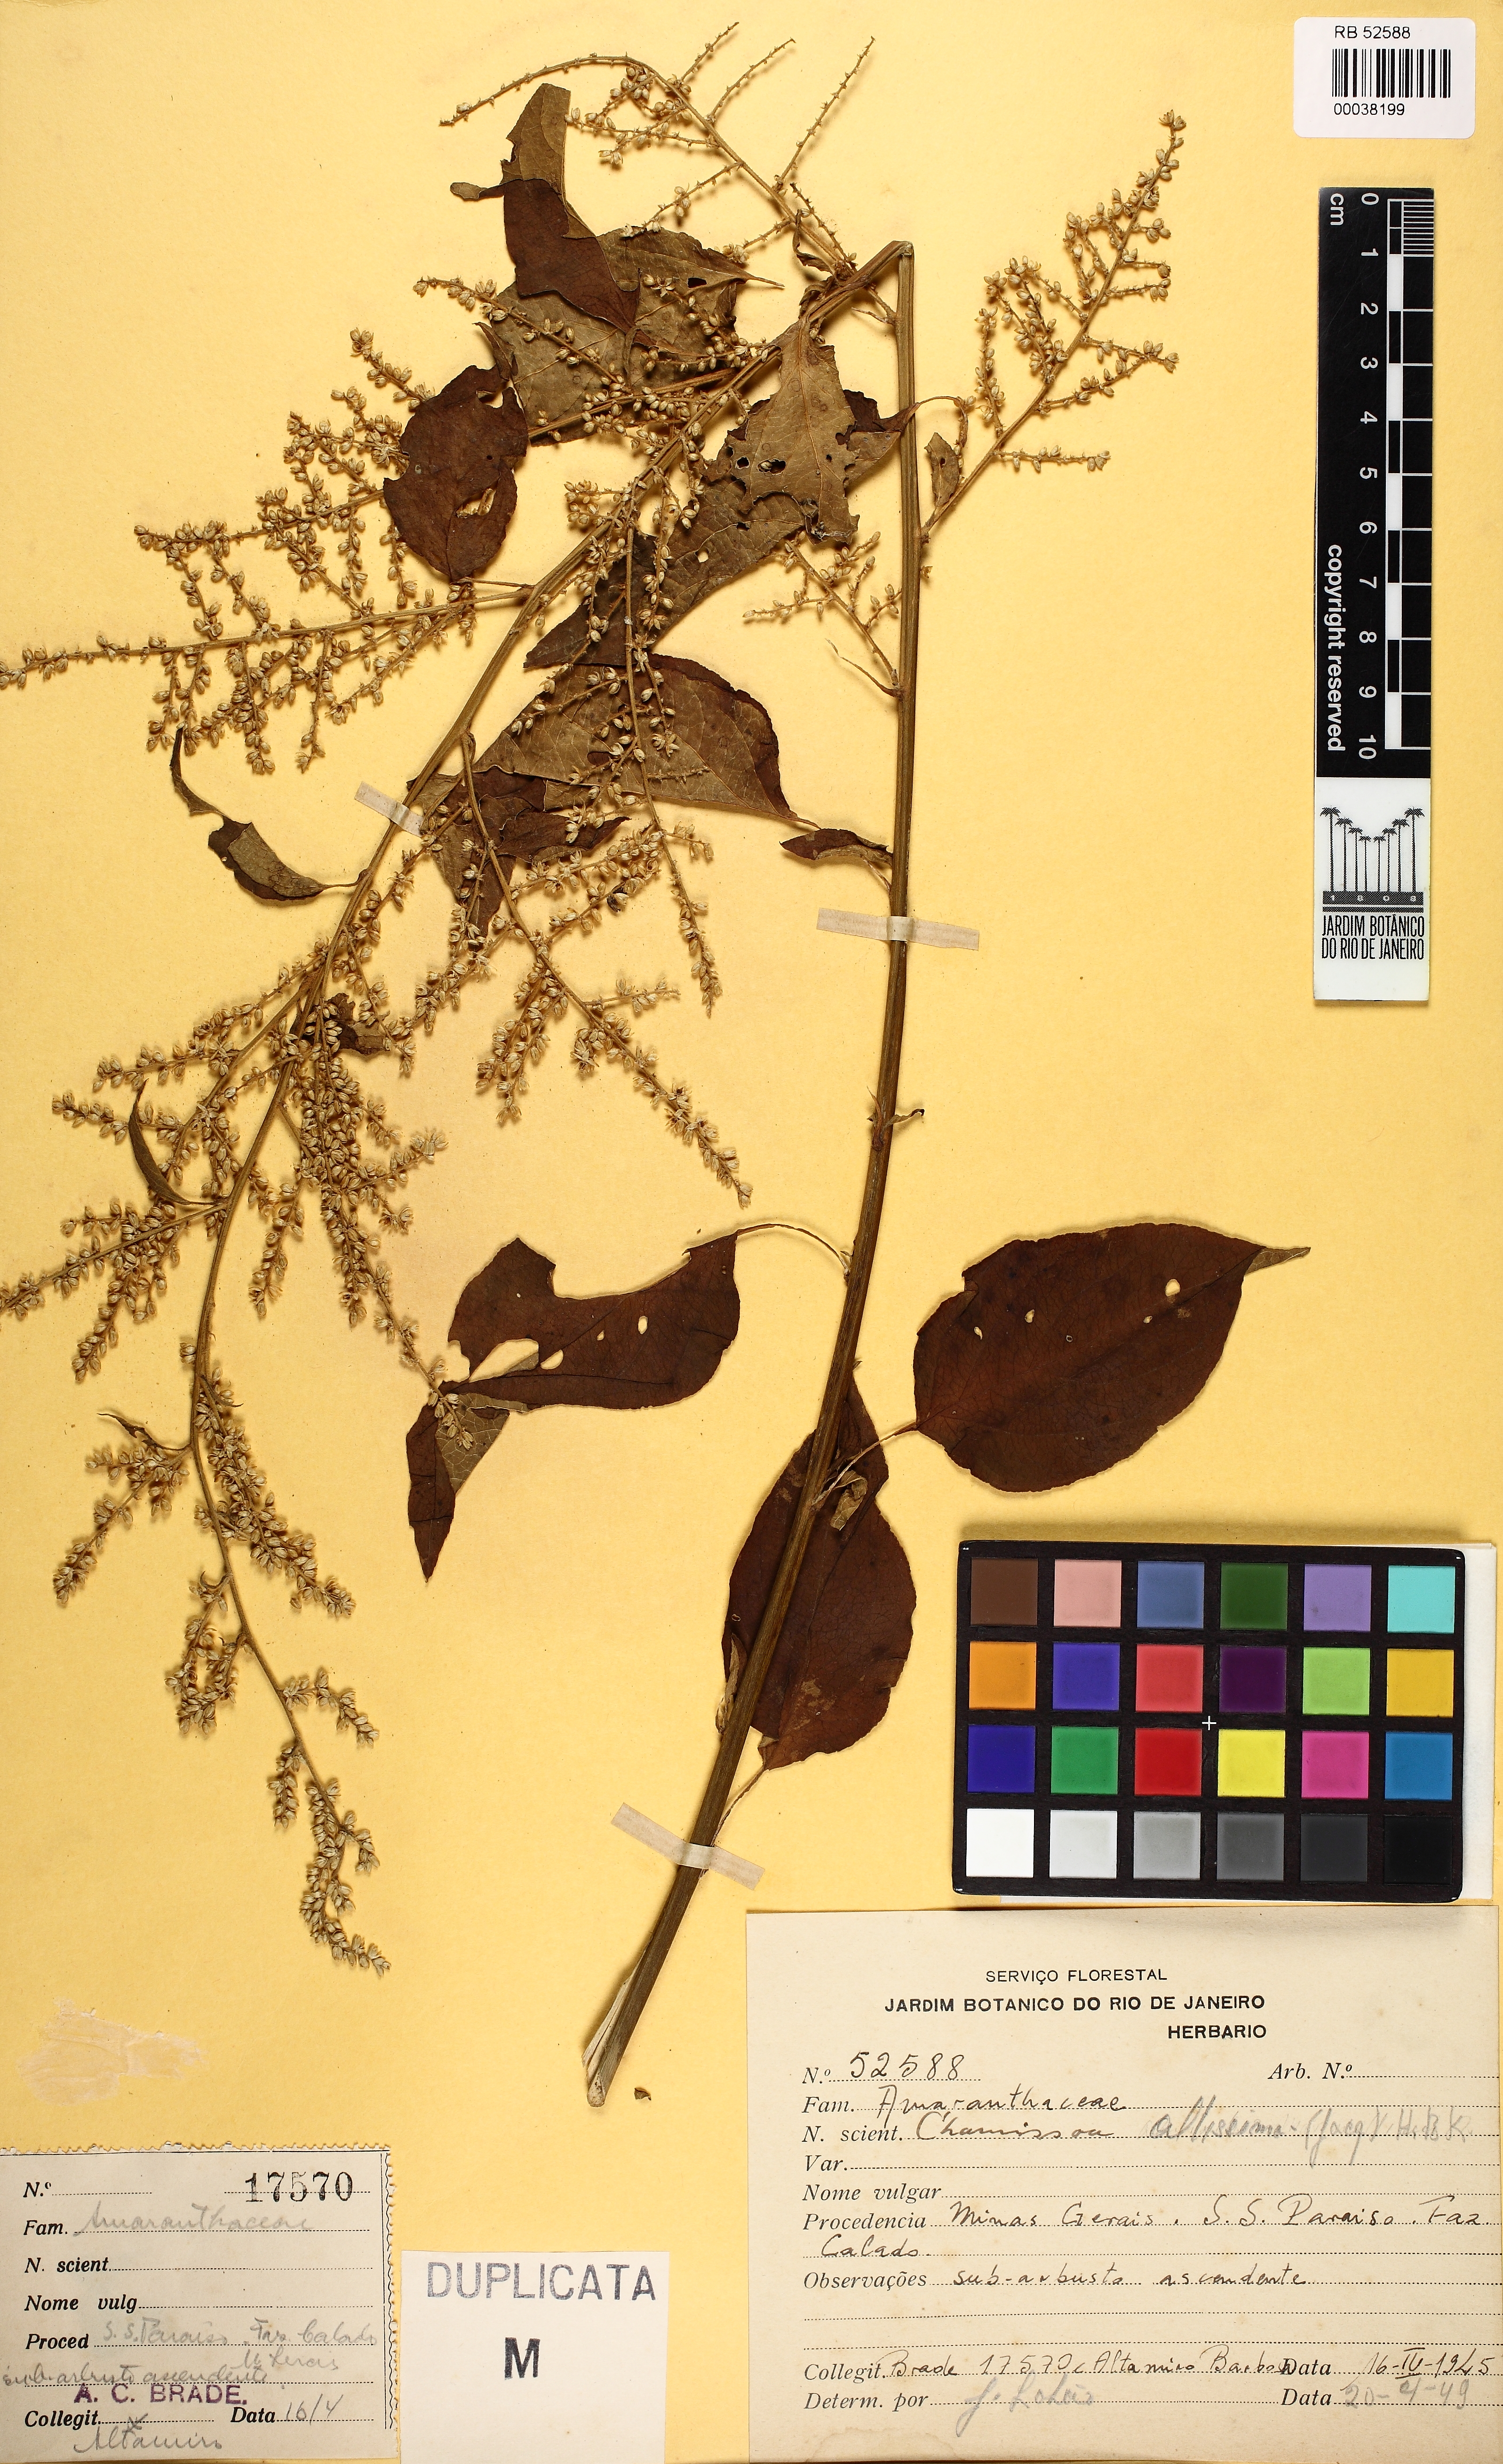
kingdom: Plantae
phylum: Tracheophyta
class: Magnoliopsida
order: Caryophyllales
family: Amaranthaceae
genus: Chamissoa
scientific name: Chamissoa altissima
